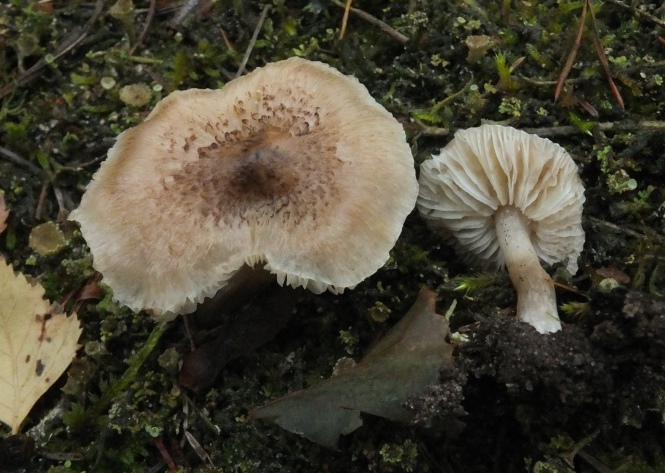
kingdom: Fungi
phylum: Basidiomycota
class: Agaricomycetes
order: Agaricales
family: Tricholomataceae
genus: Tricholoma
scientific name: Tricholoma argyraceum
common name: slør-ridderhat
